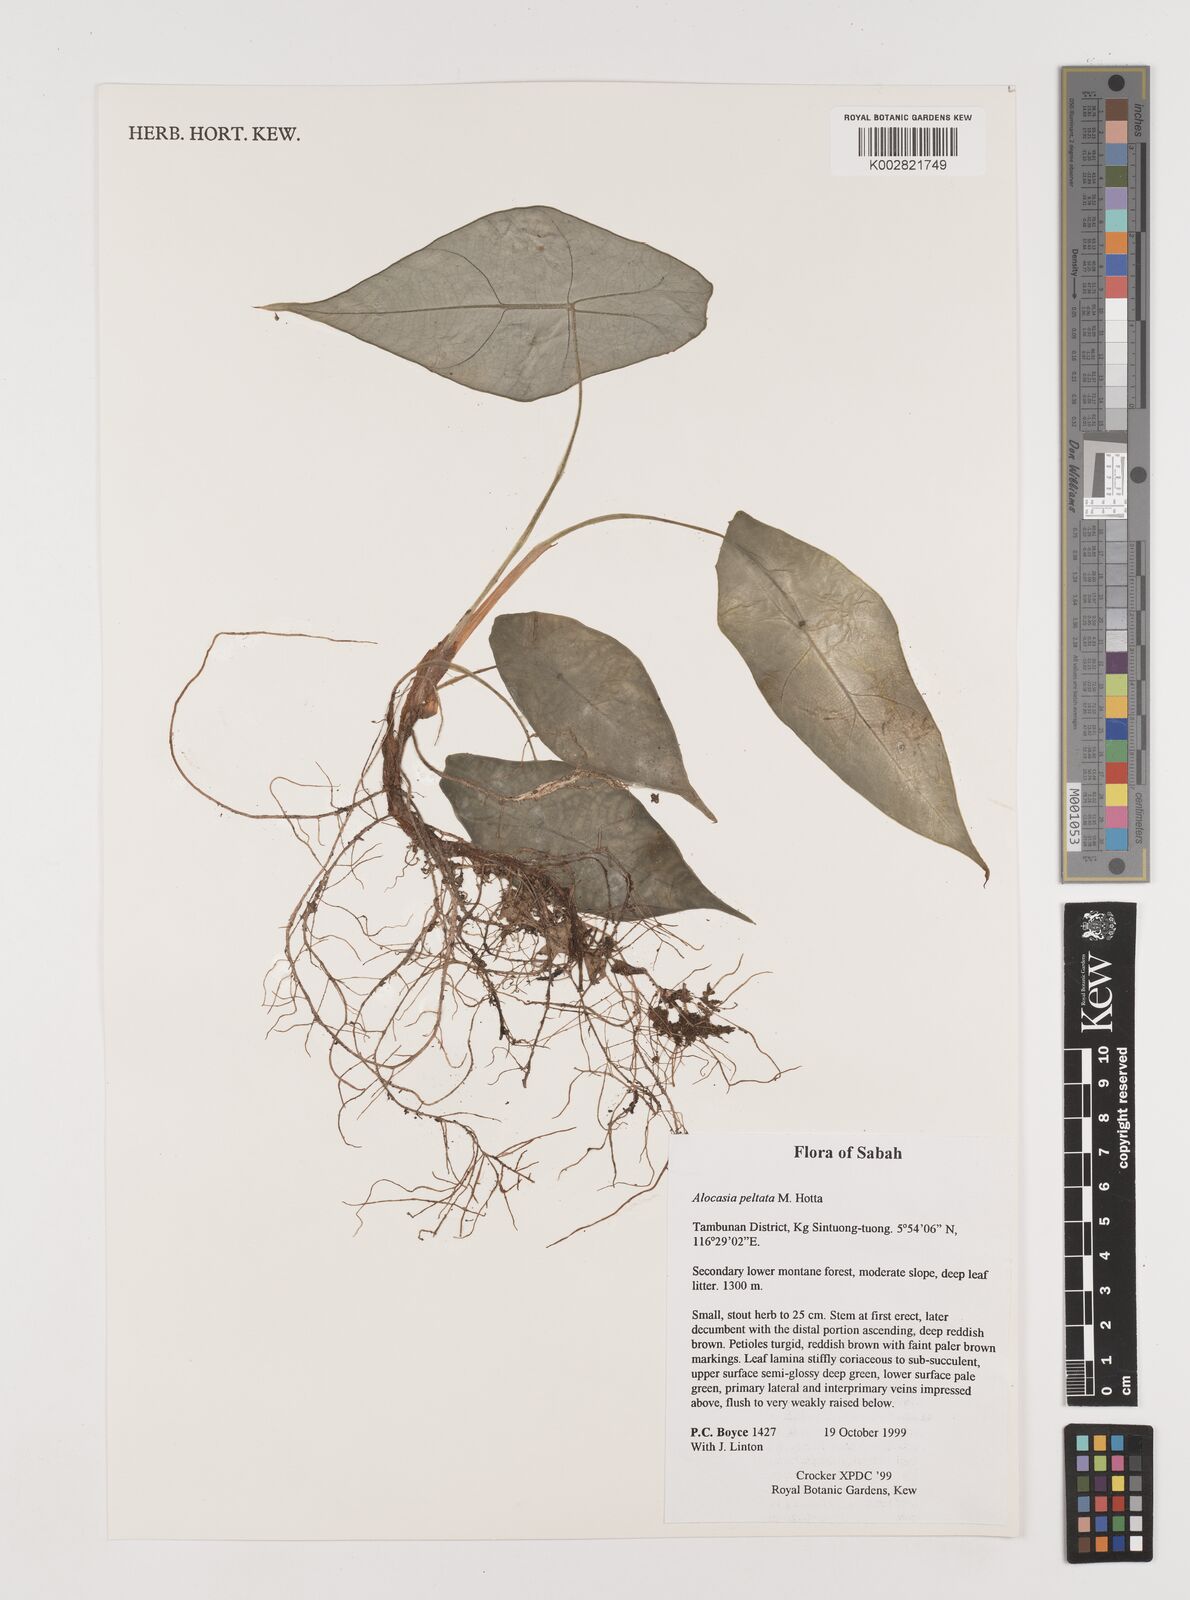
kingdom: Plantae
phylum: Tracheophyta
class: Liliopsida
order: Alismatales
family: Araceae
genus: Alocasia
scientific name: Alocasia peltata
